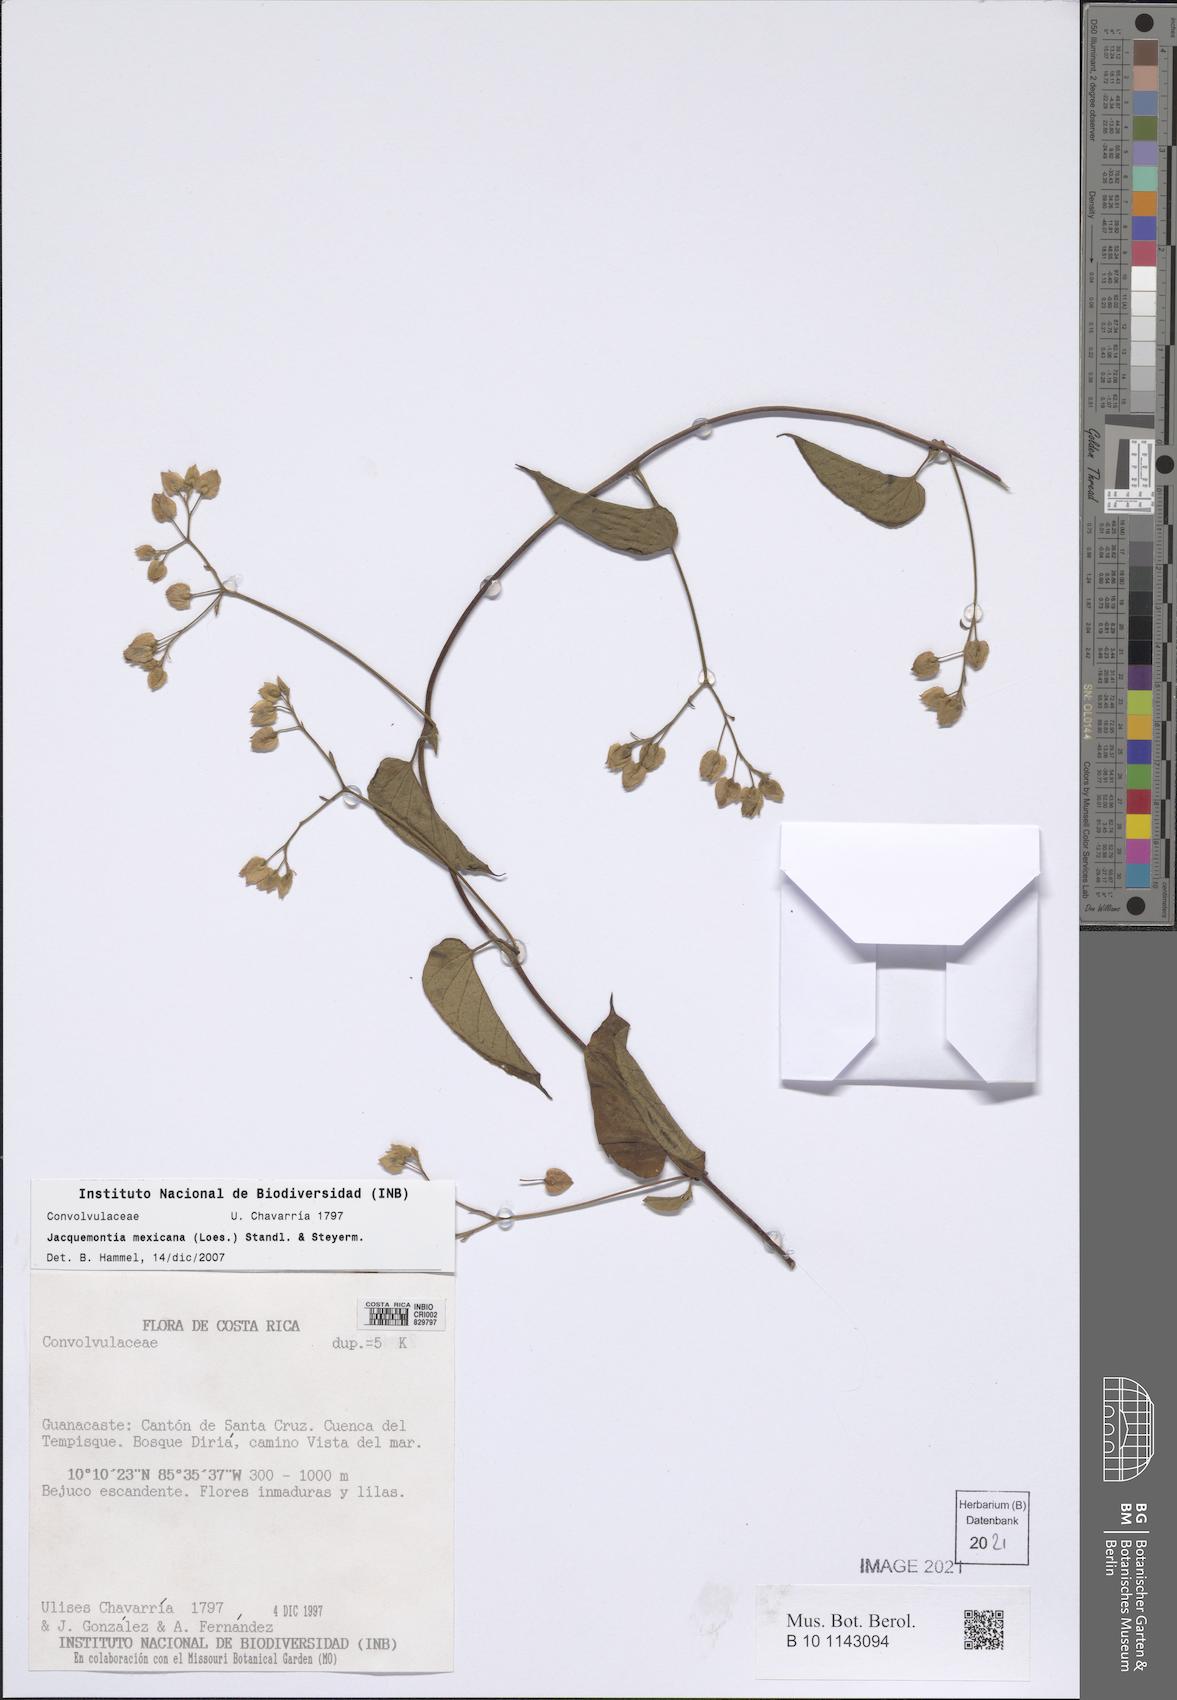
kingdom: Plantae
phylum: Tracheophyta
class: Magnoliopsida
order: Solanales
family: Convolvulaceae
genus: Jacquemontia
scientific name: Jacquemontia mexicana
